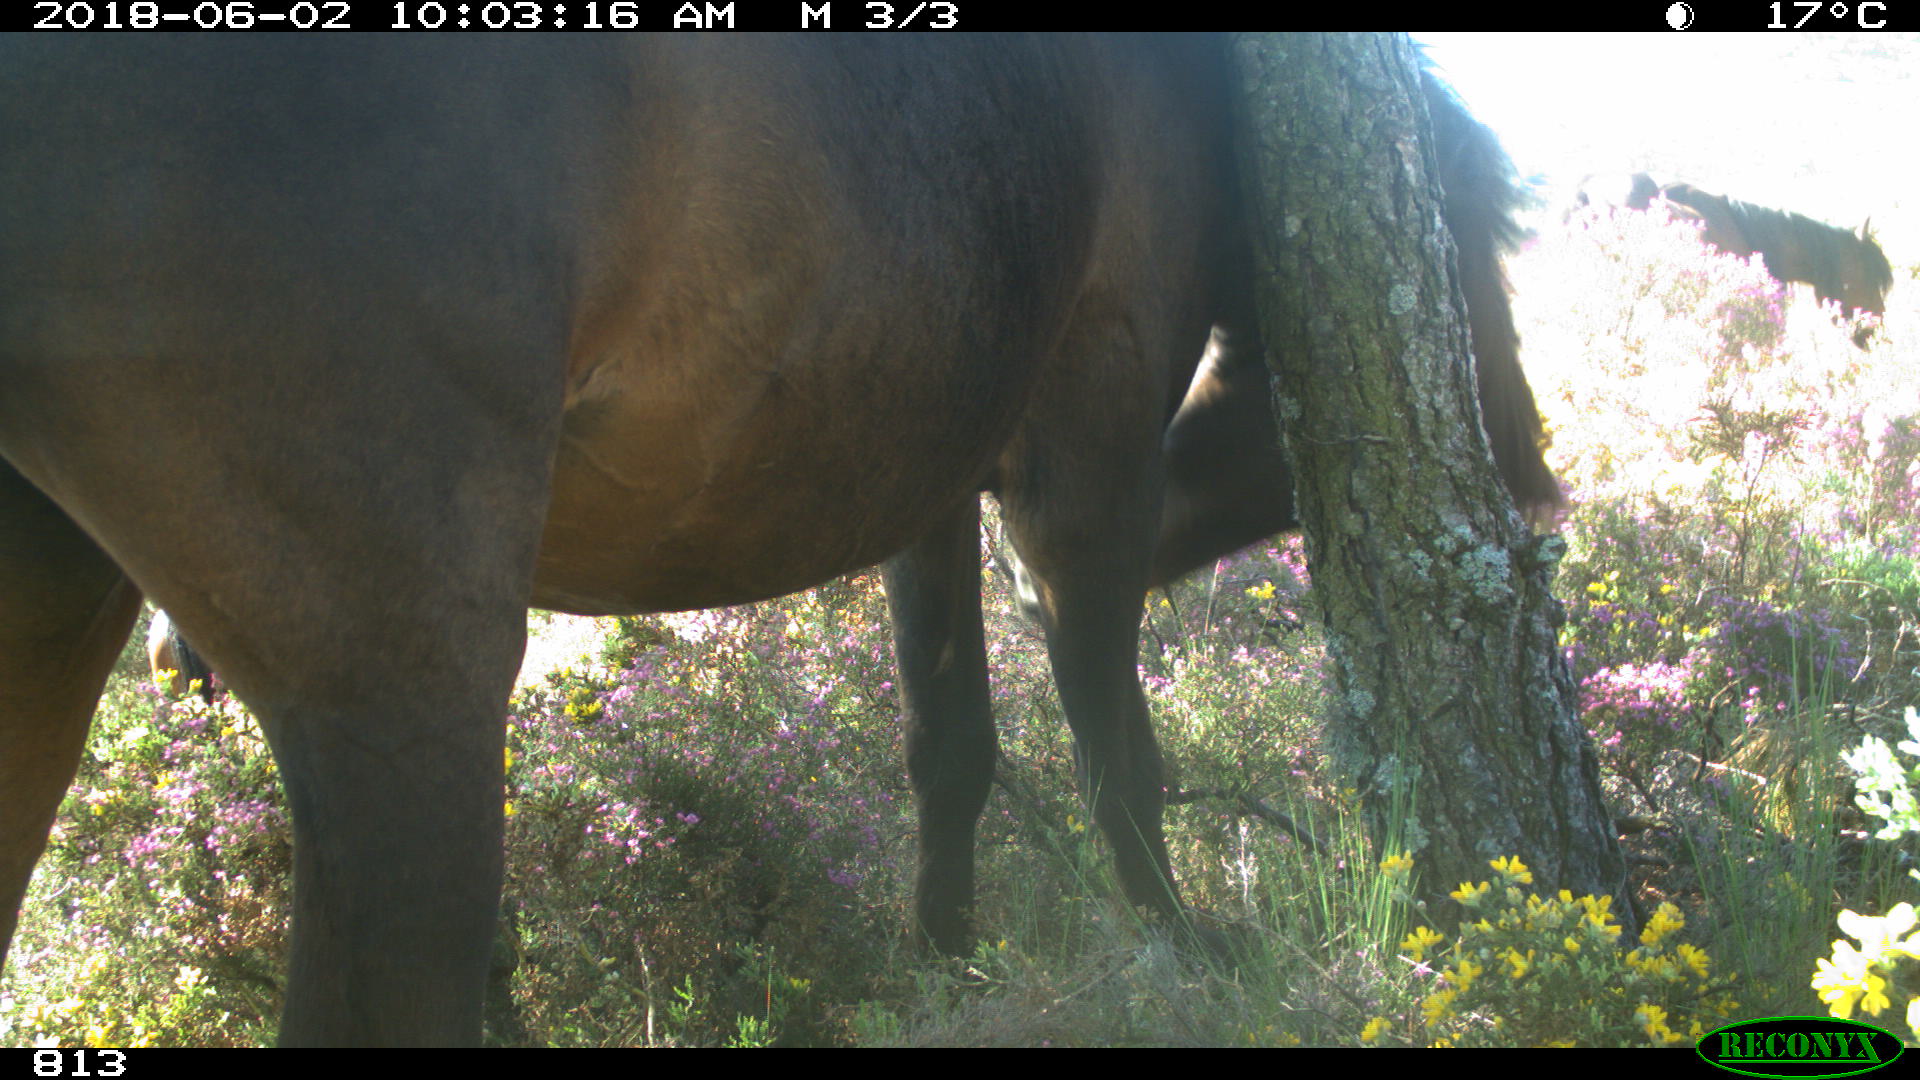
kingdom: Animalia
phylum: Chordata
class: Mammalia
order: Perissodactyla
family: Equidae
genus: Equus
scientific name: Equus caballus
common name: Horse
